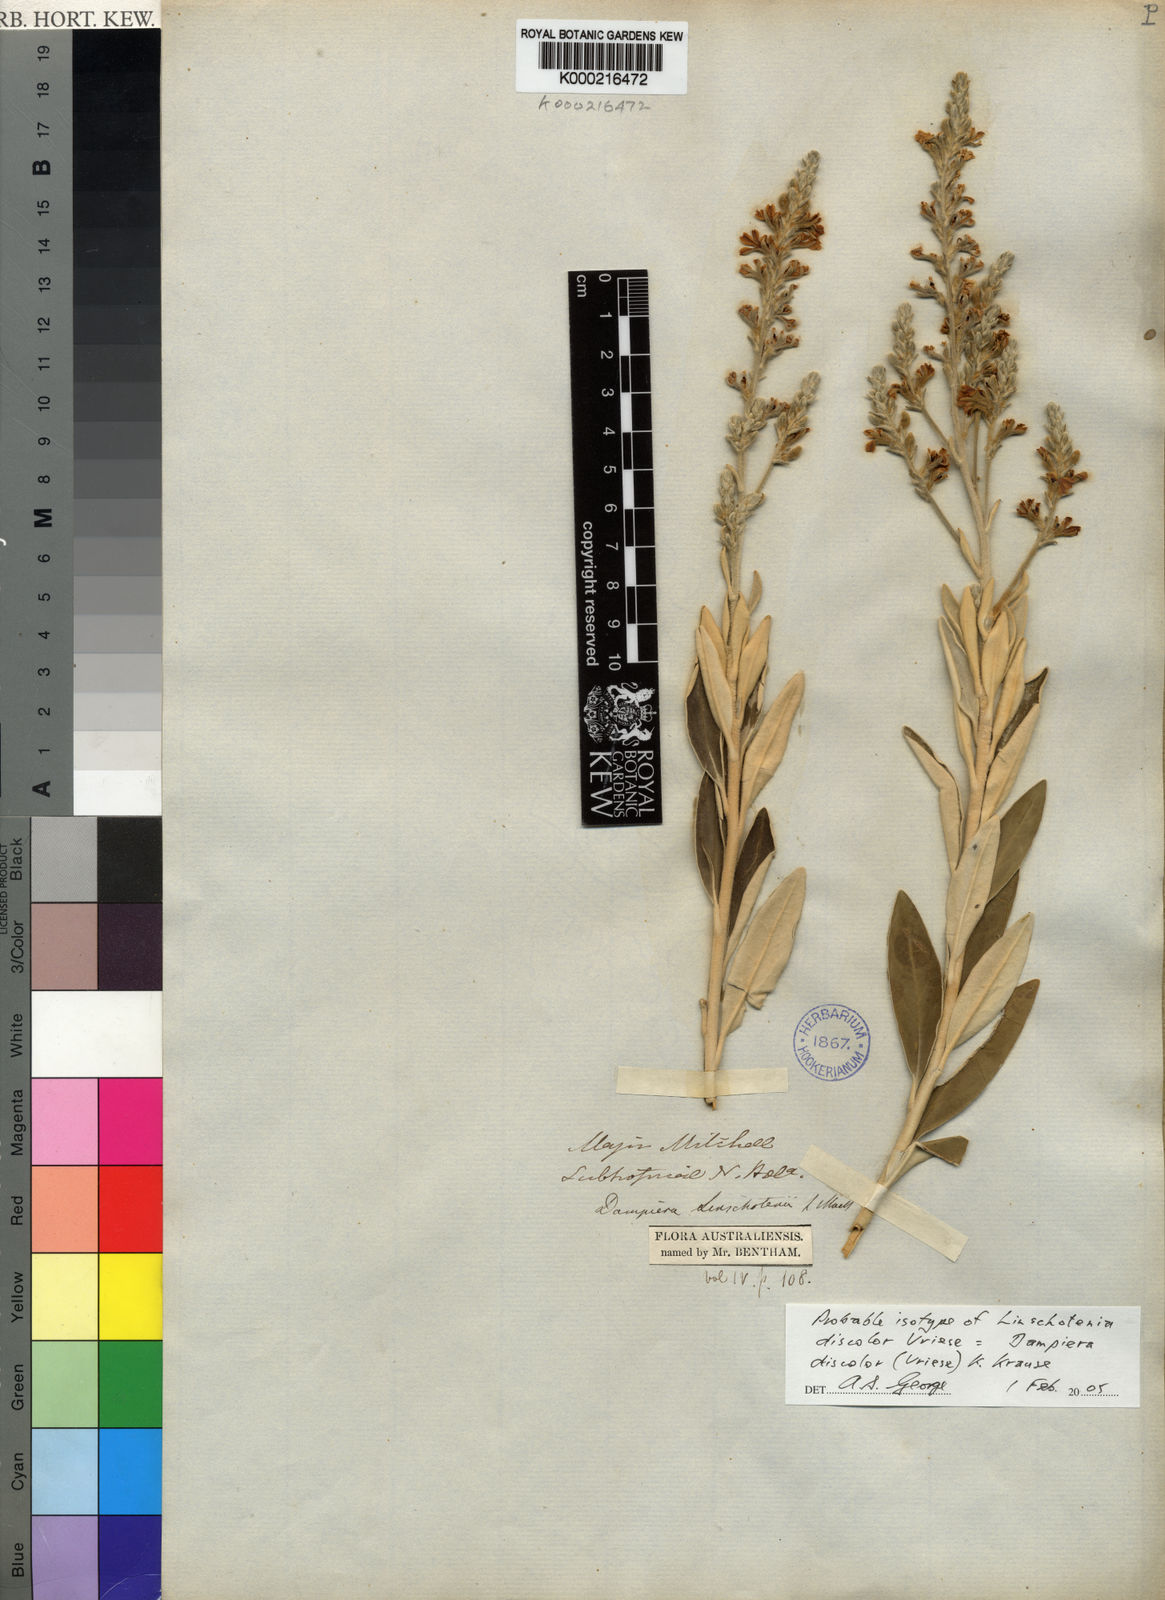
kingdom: Plantae
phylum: Tracheophyta
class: Magnoliopsida
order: Asterales
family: Goodeniaceae
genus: Dampiera
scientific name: Dampiera discolor
